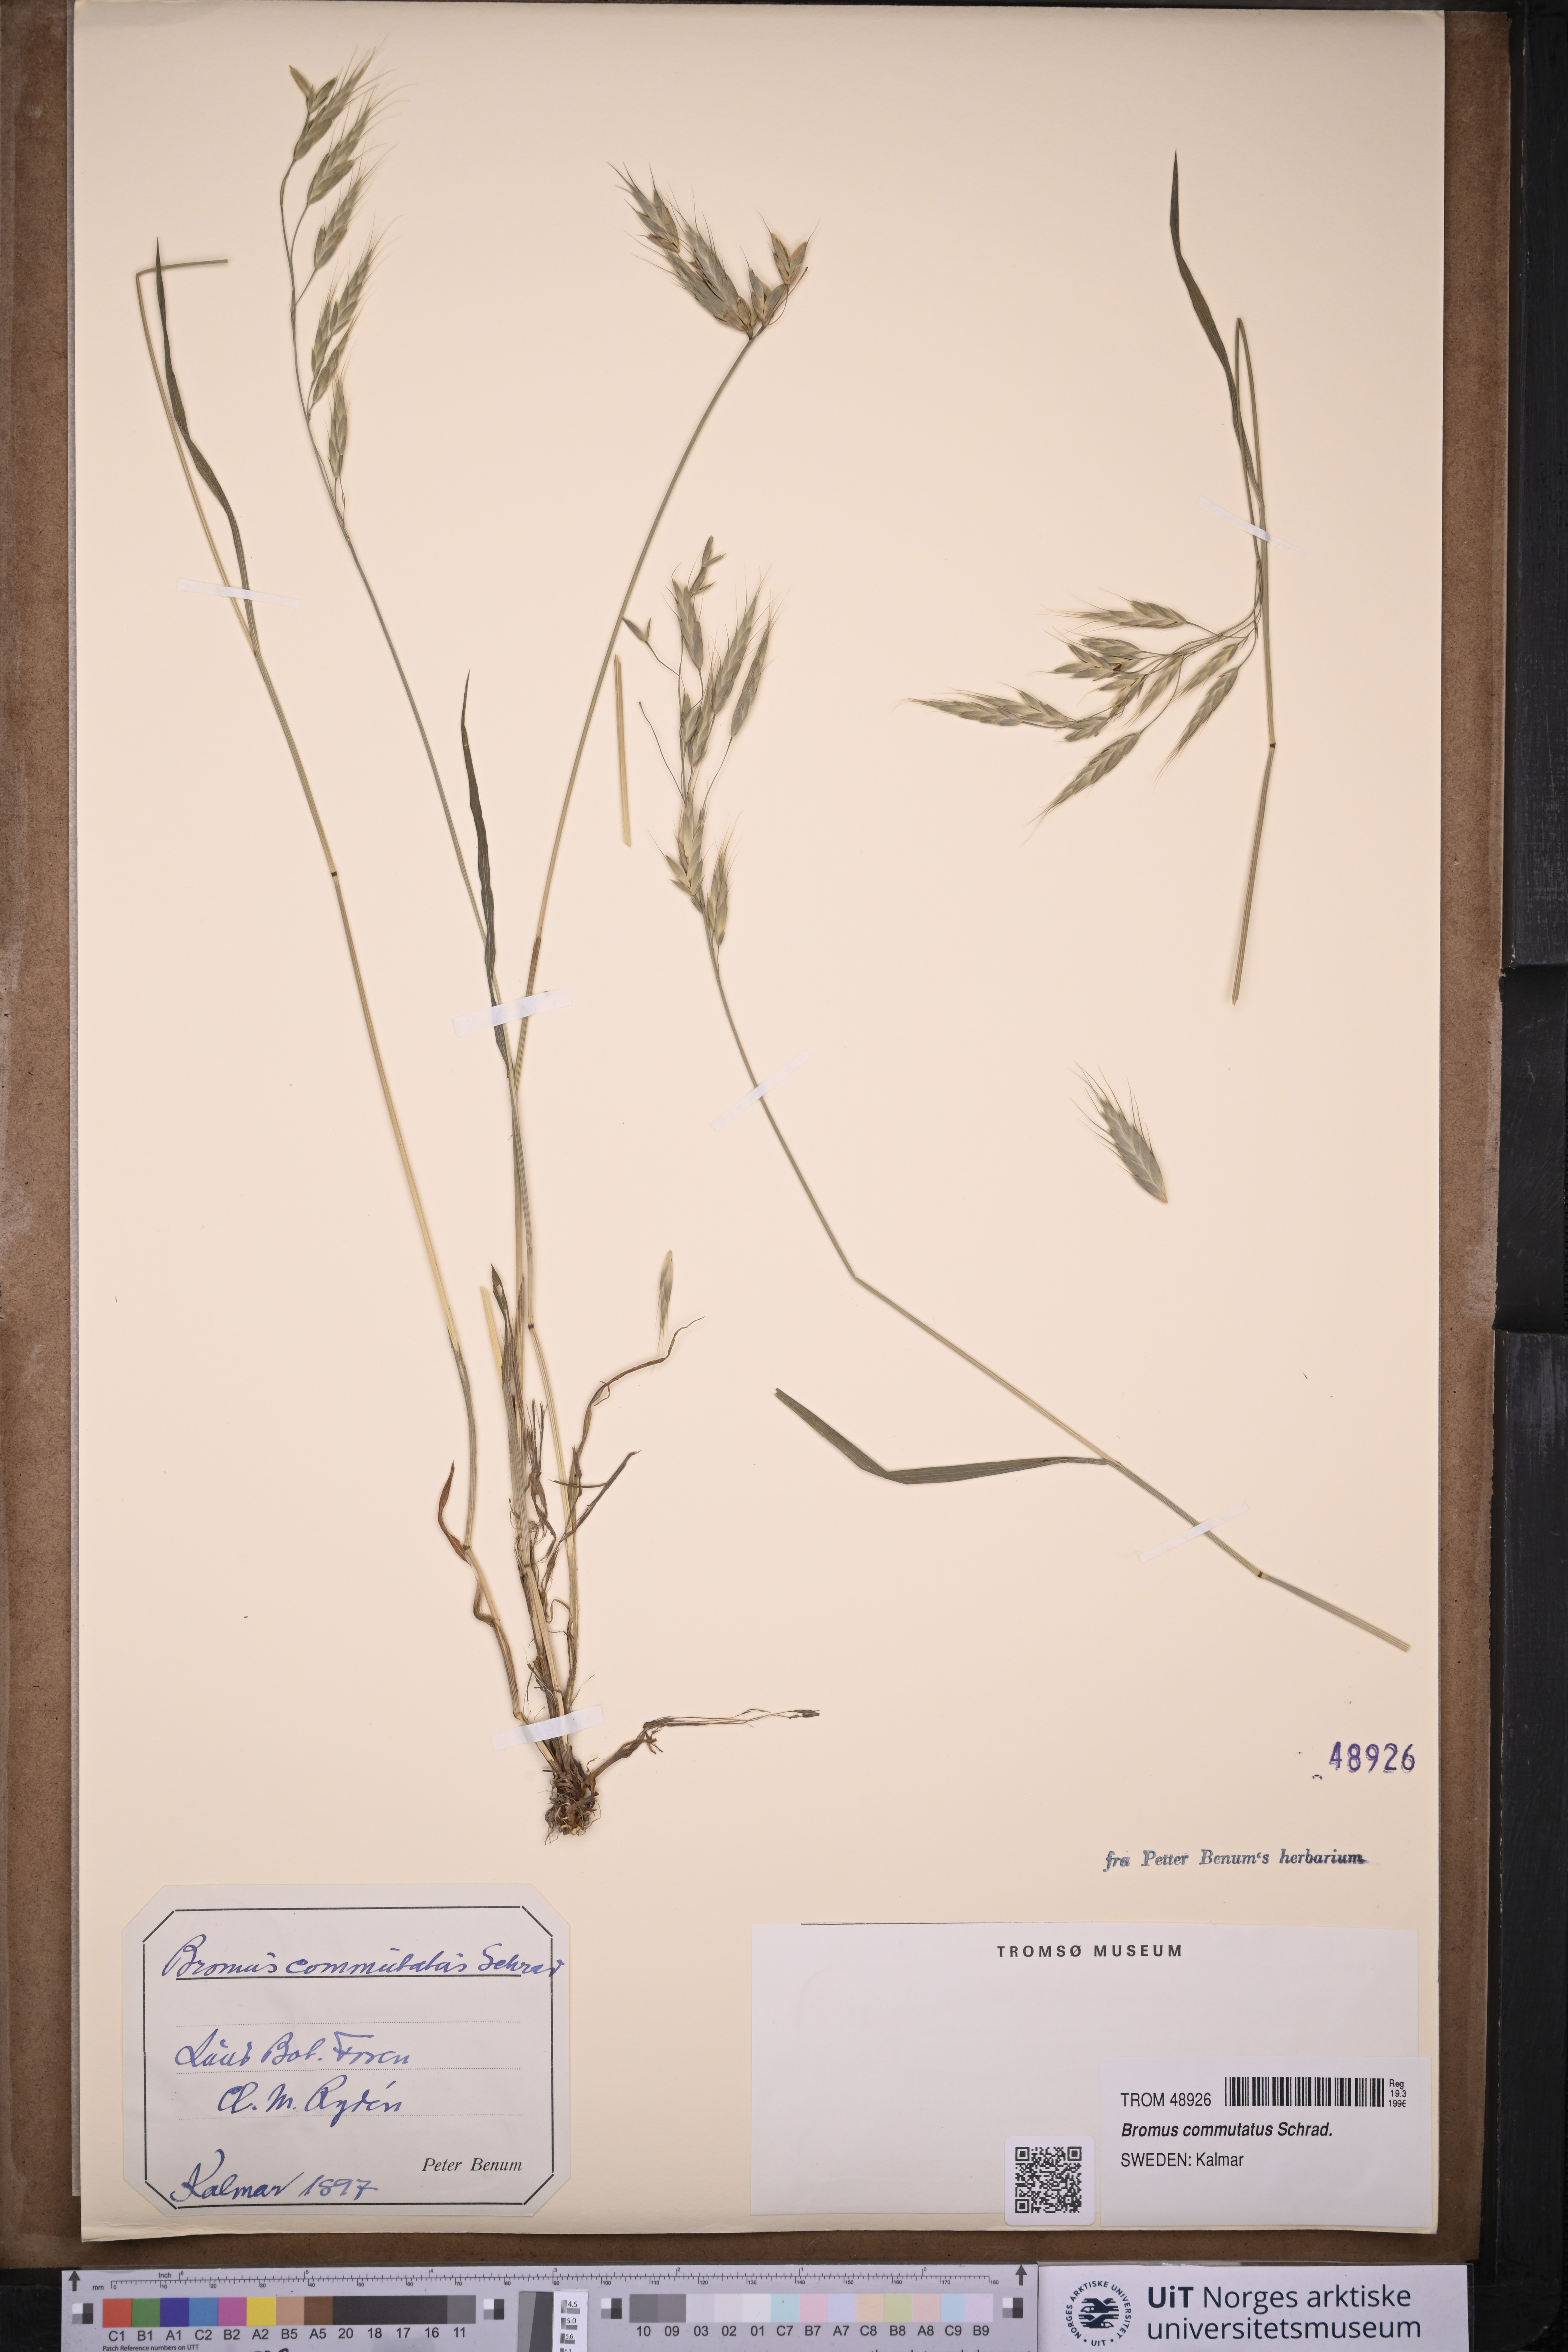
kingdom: Plantae
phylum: Tracheophyta
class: Liliopsida
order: Poales
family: Poaceae
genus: Bromus
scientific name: Bromus commutatus
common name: Meadow brome
